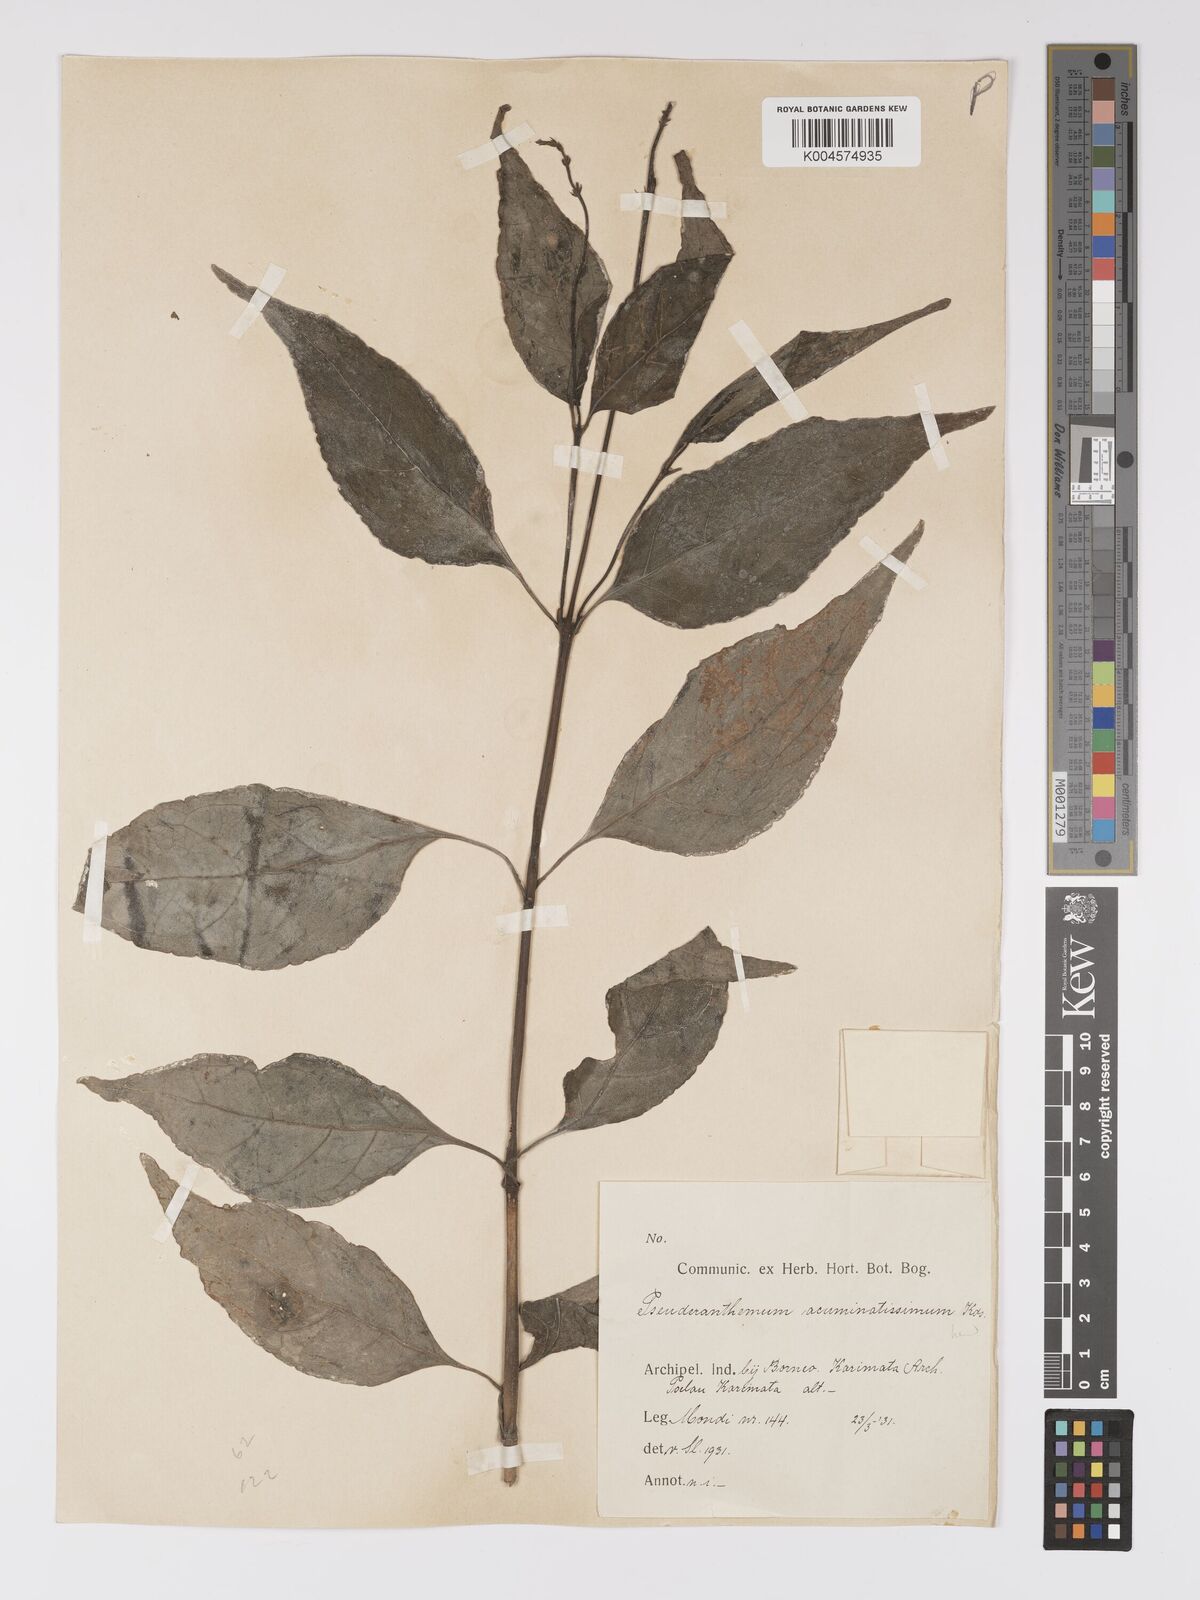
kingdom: Plantae
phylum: Tracheophyta
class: Magnoliopsida
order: Lamiales
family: Acanthaceae
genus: Pseuderanthemum
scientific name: Pseuderanthemum acuminatissimum
